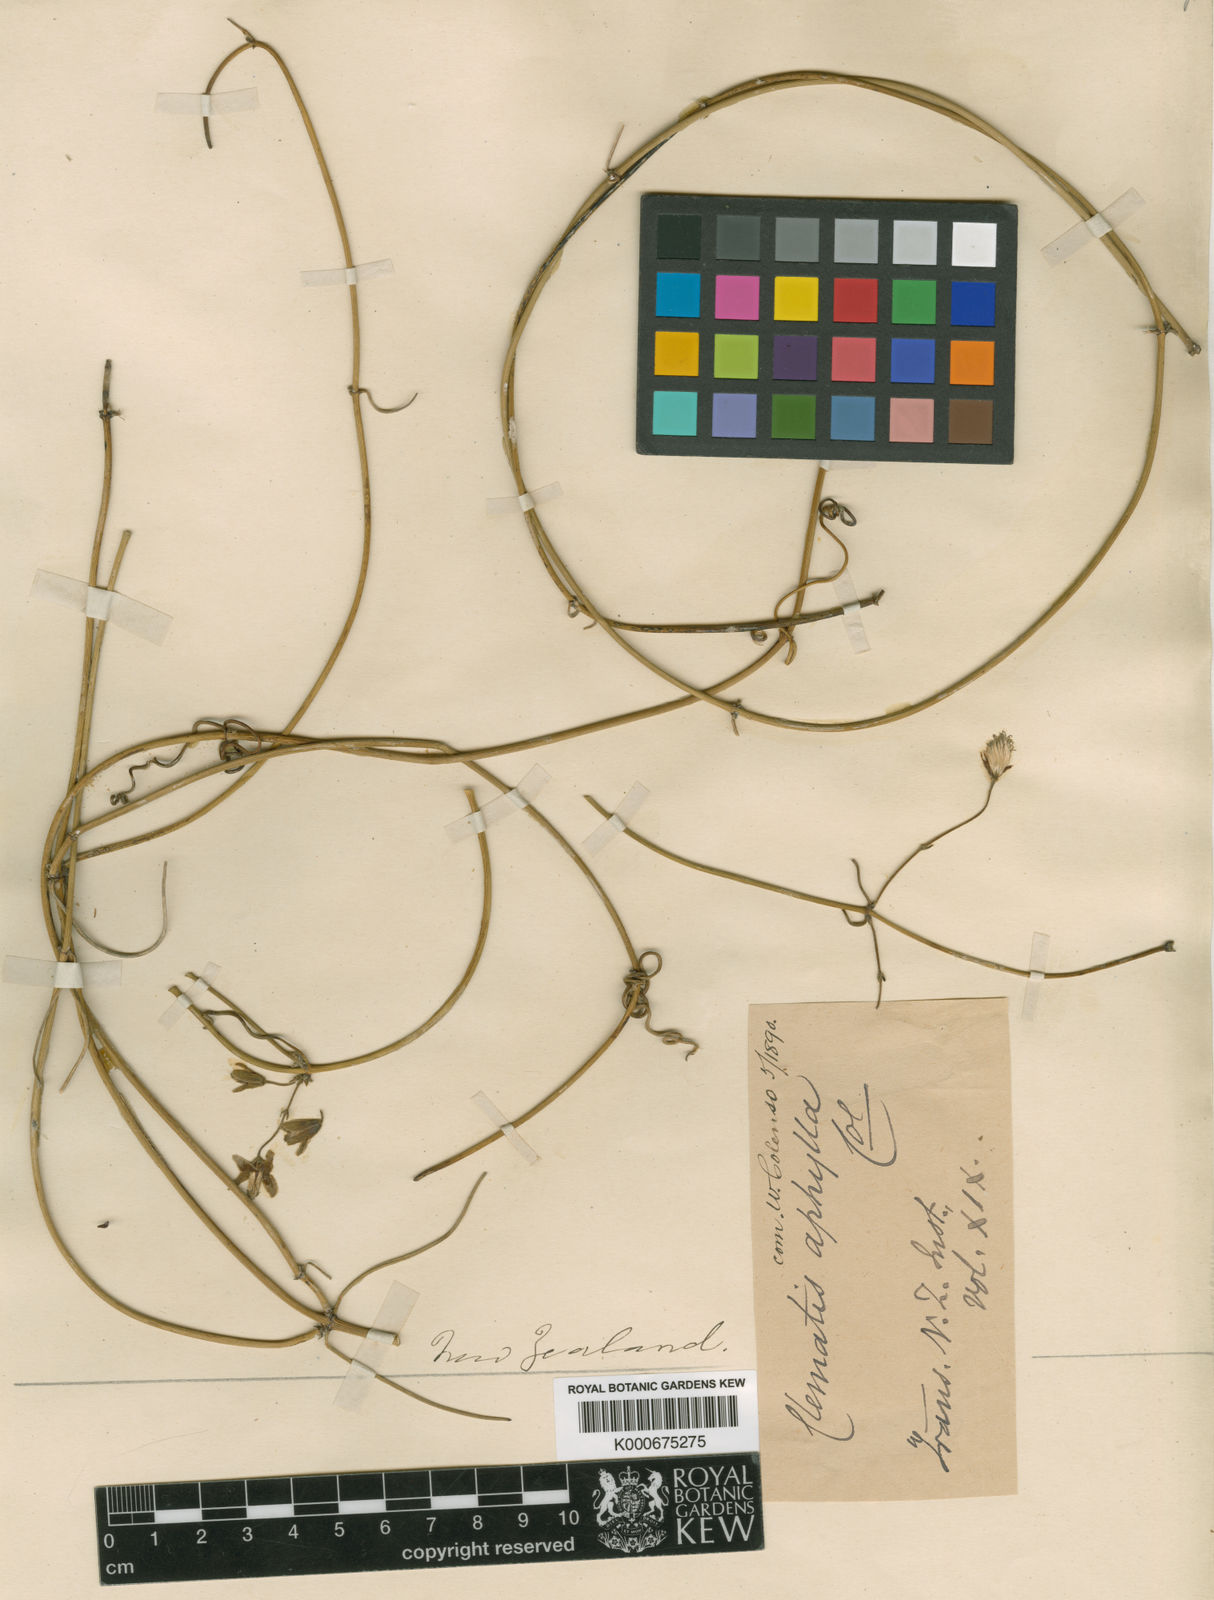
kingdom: Plantae
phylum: Tracheophyta
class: Magnoliopsida
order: Ranunculales
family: Ranunculaceae
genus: Clematis
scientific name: Clematis afoliata
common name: Rush-stem clematis
